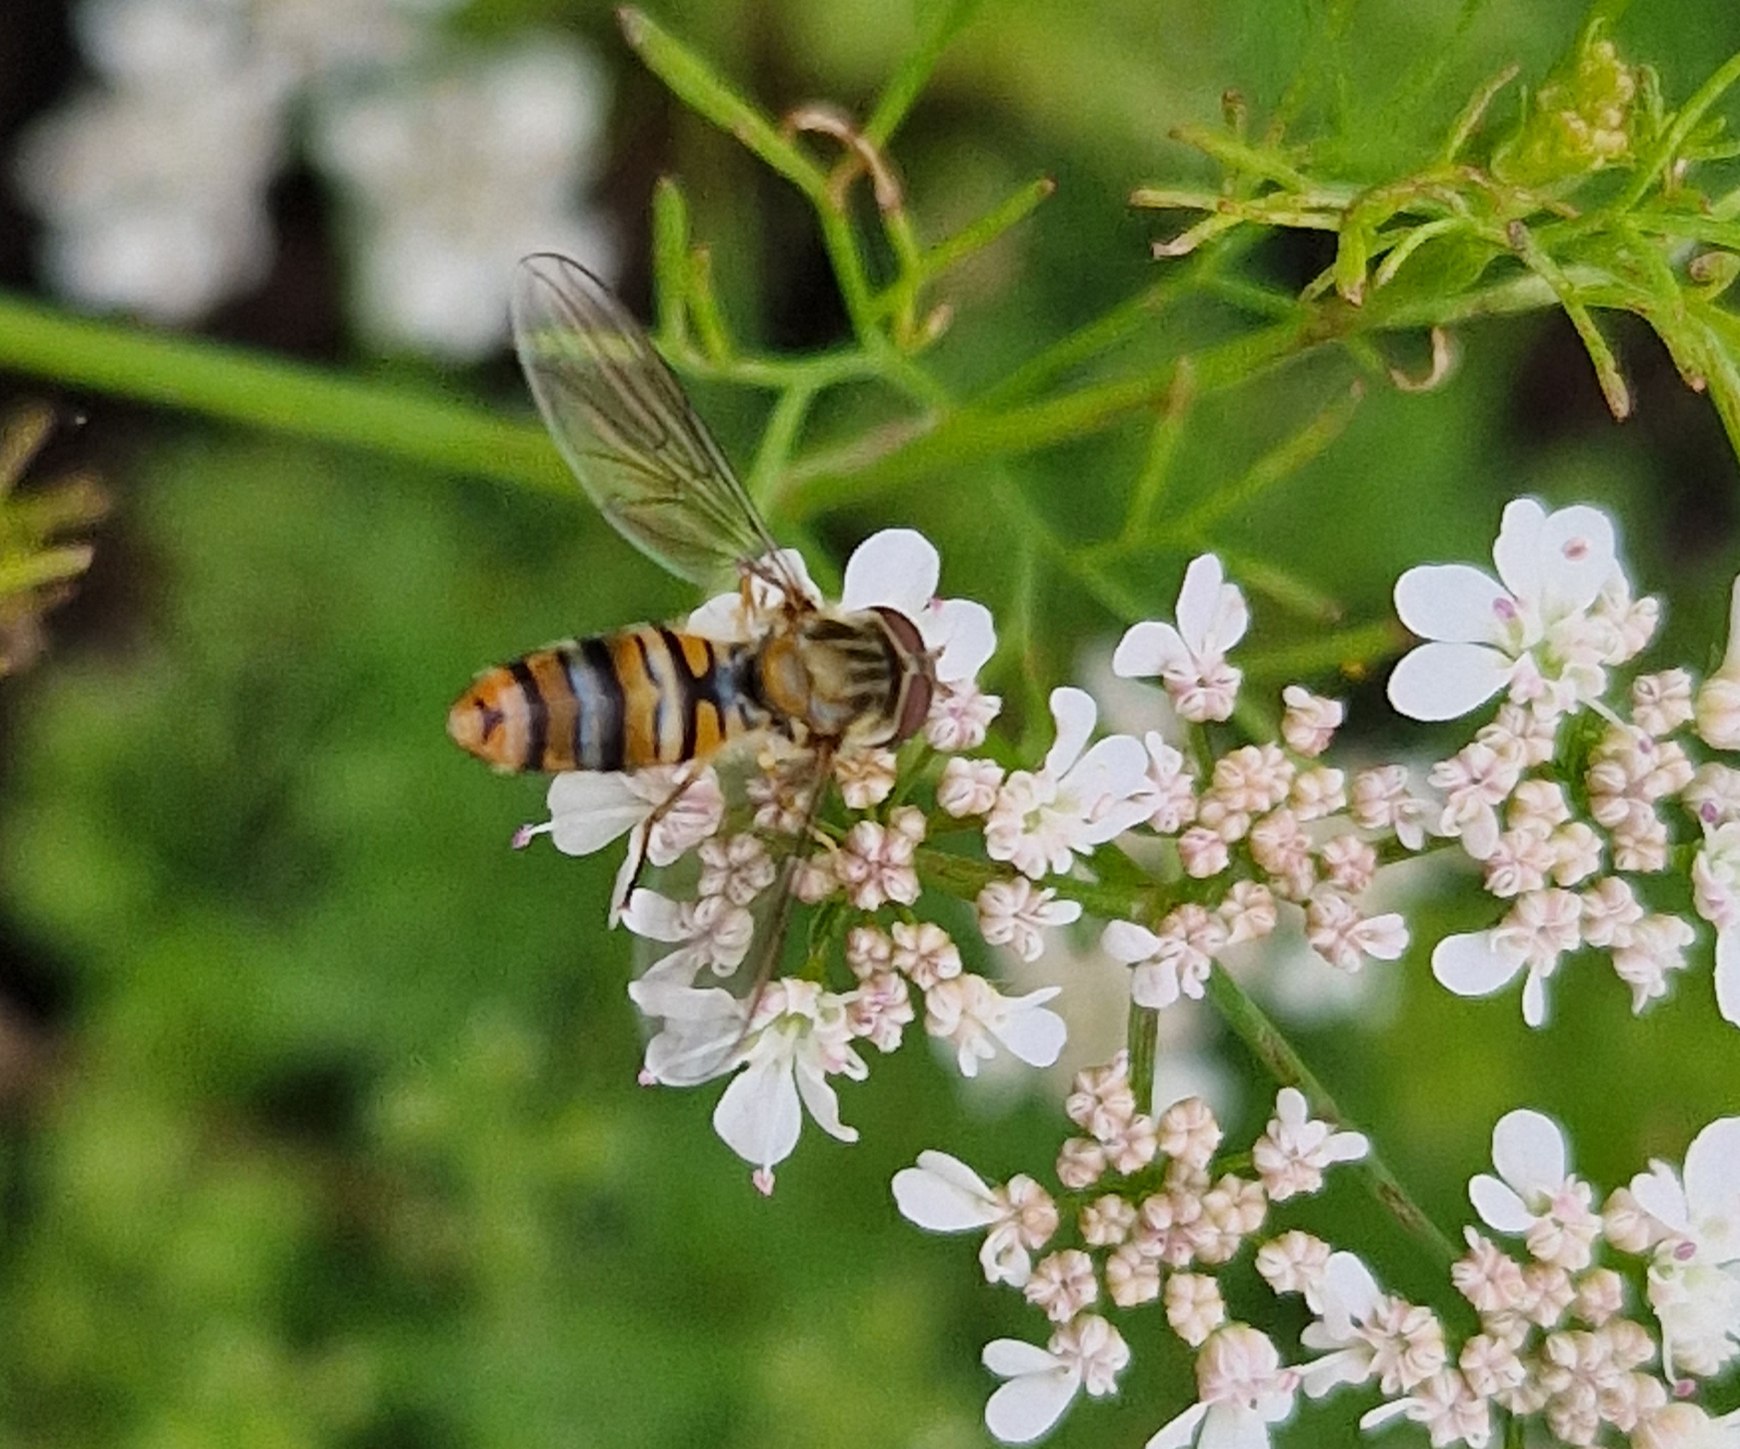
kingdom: Animalia
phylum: Arthropoda
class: Insecta
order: Diptera
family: Syrphidae
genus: Episyrphus
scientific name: Episyrphus balteatus
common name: Dobbeltbåndet svirreflue
